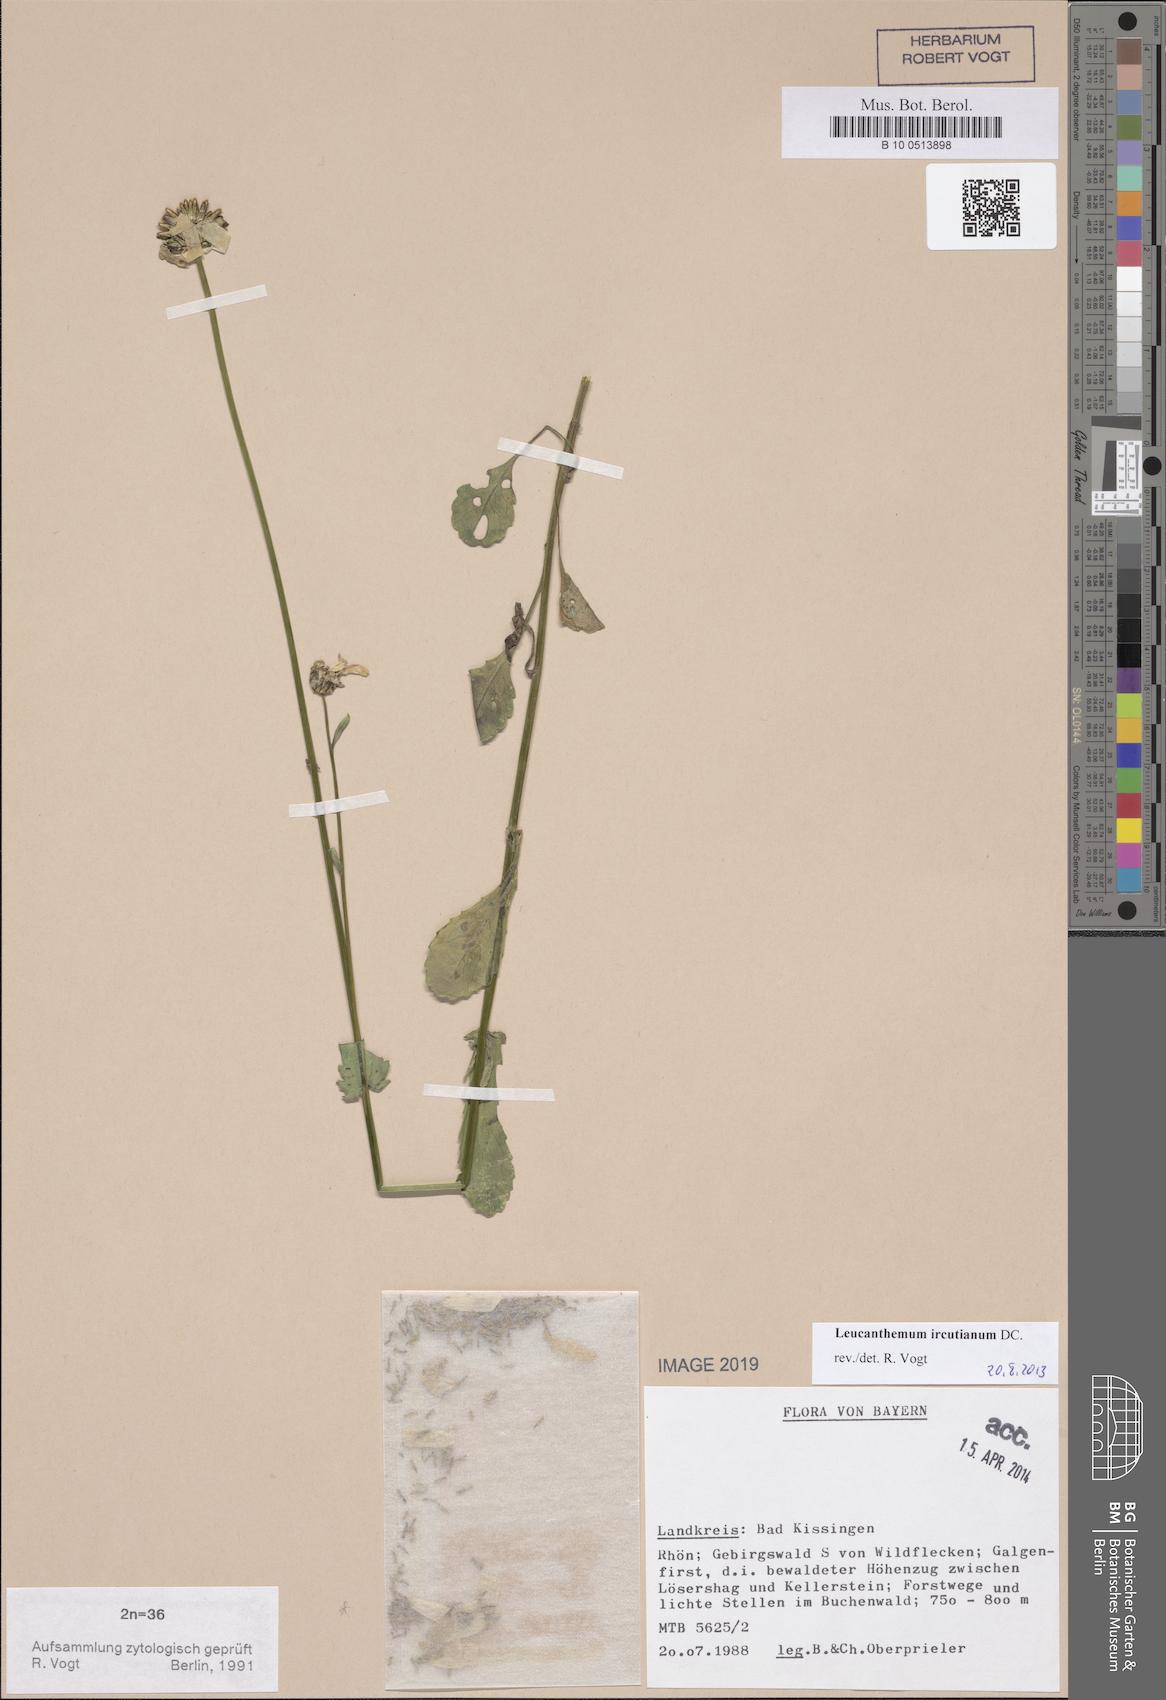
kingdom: Plantae
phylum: Tracheophyta
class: Magnoliopsida
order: Asterales
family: Asteraceae
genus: Leucanthemum
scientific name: Leucanthemum ircutianum
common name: Daisy
